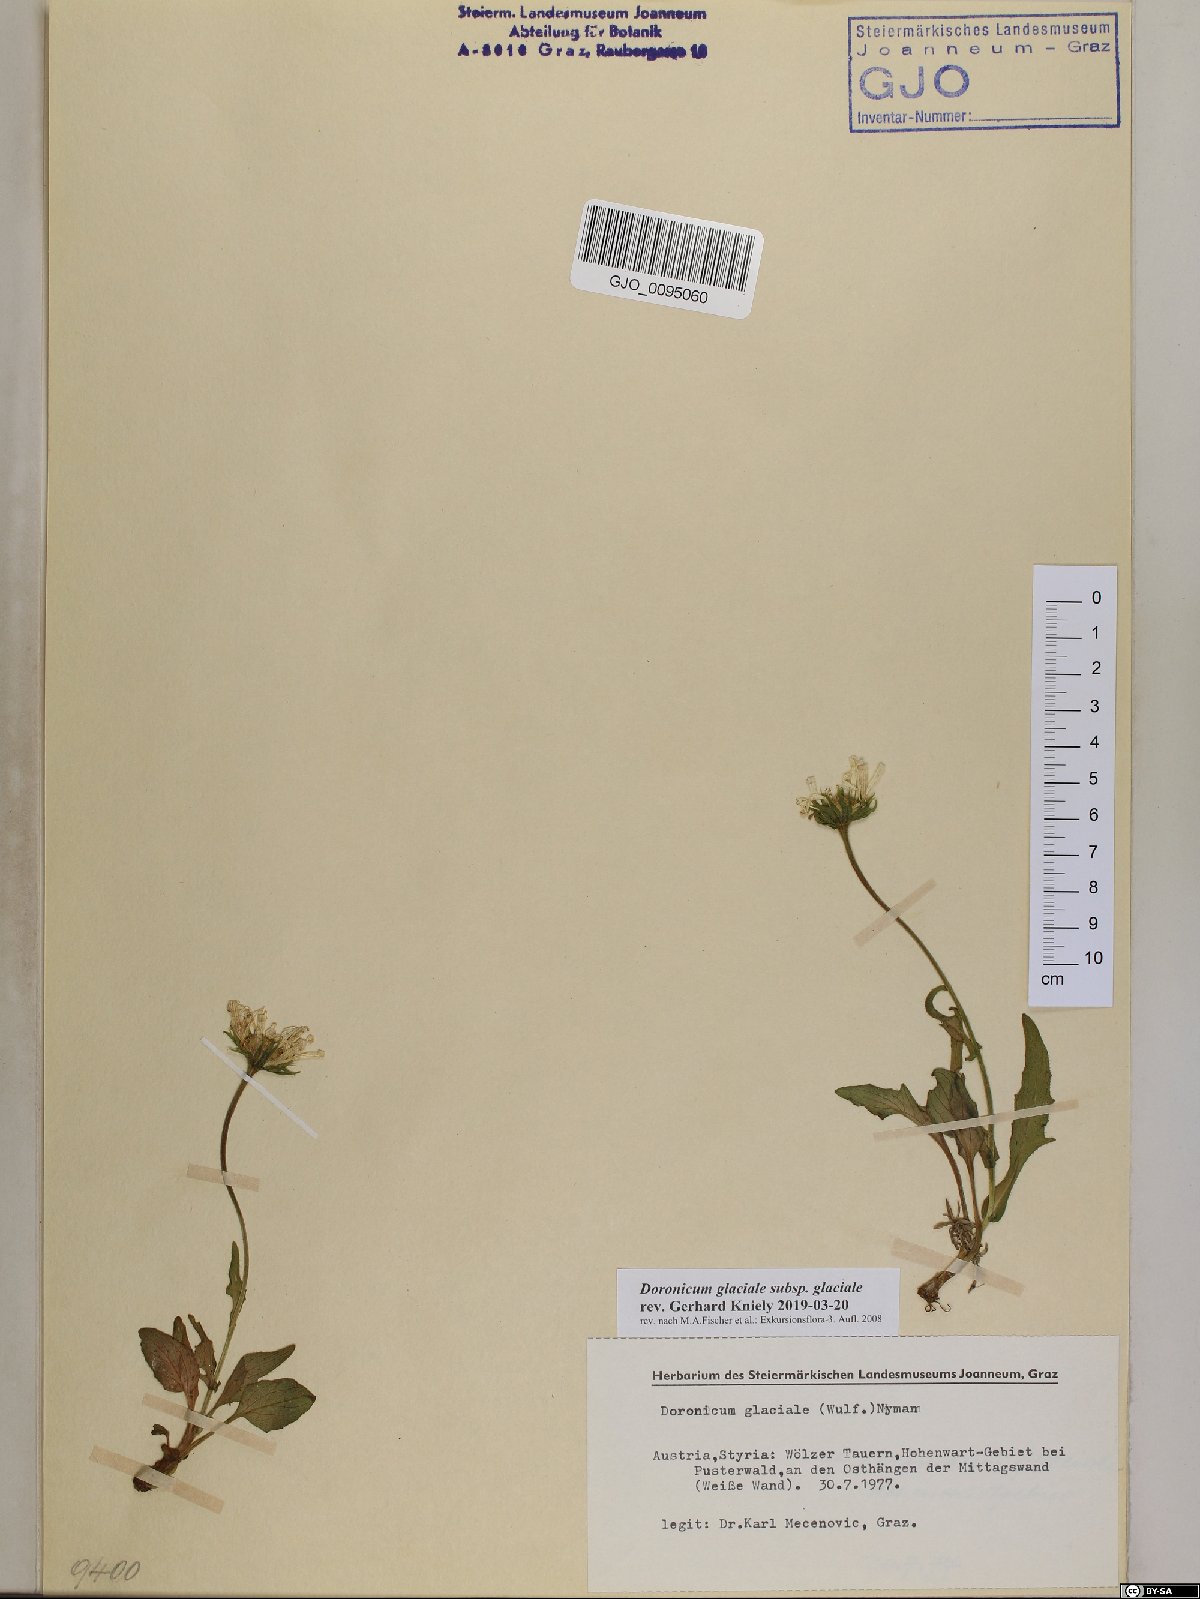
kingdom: Plantae
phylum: Tracheophyta
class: Magnoliopsida
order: Asterales
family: Asteraceae
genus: Doronicum
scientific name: Doronicum glaciale
